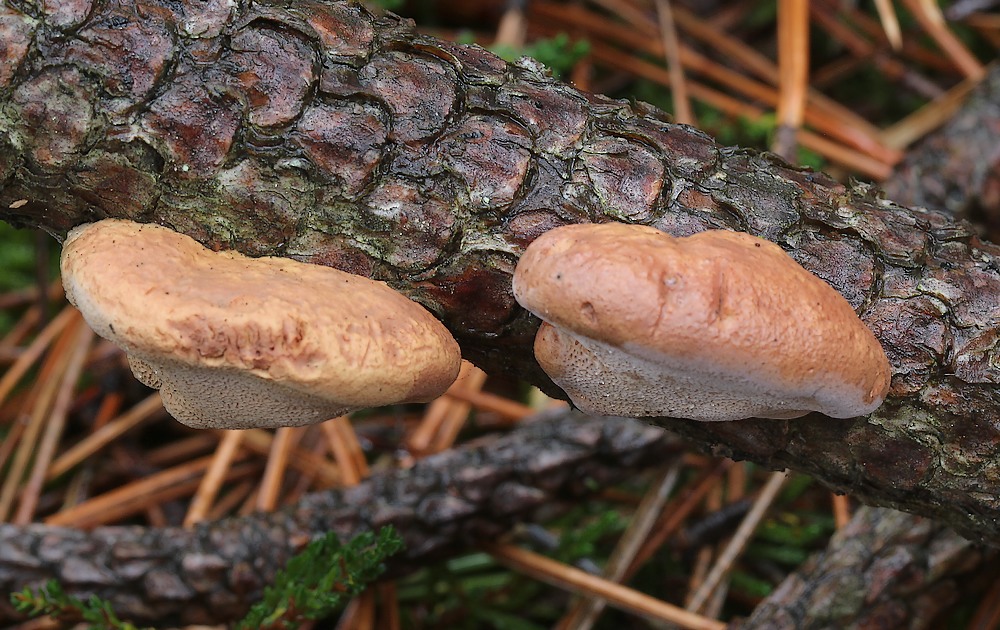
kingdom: Fungi
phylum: Basidiomycota
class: Agaricomycetes
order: Polyporales
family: Phanerochaetaceae
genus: Hapalopilus
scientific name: Hapalopilus rutilans
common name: rødlig okkerporesvamp
